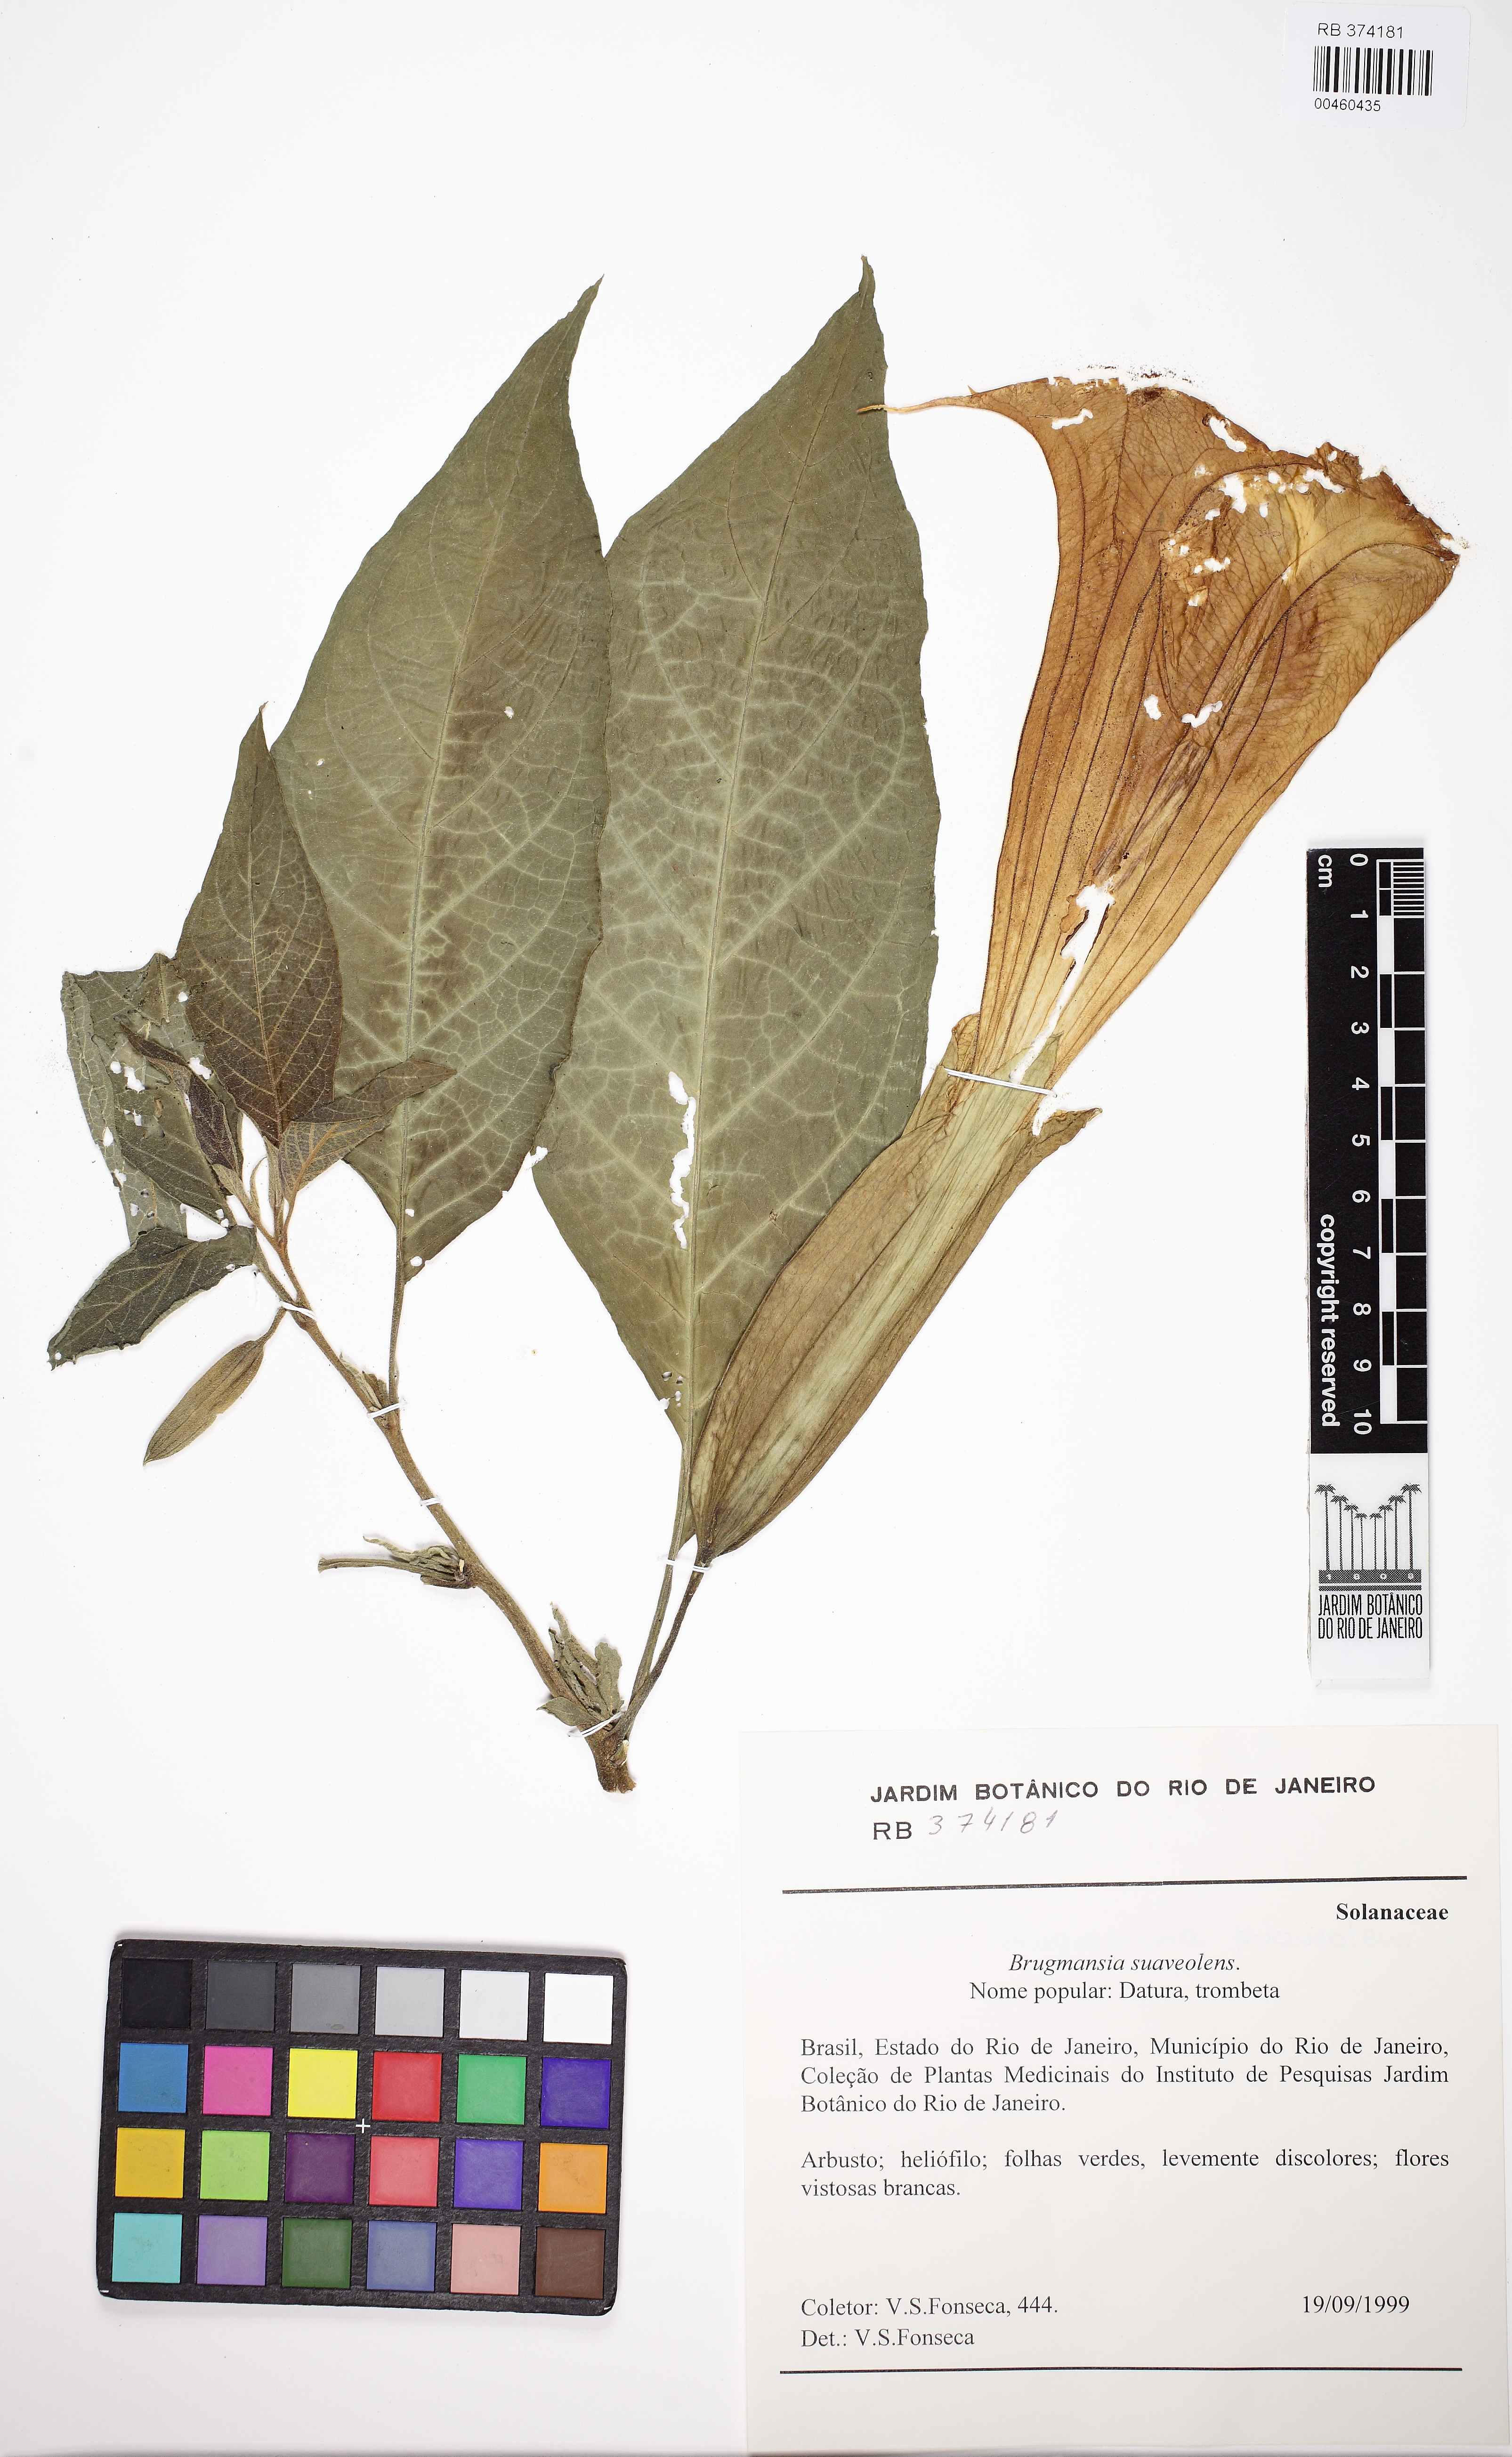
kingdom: Plantae
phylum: Tracheophyta
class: Magnoliopsida
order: Solanales
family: Solanaceae
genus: Brugmansia
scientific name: Brugmansia suaveolens
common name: Angel's tears
